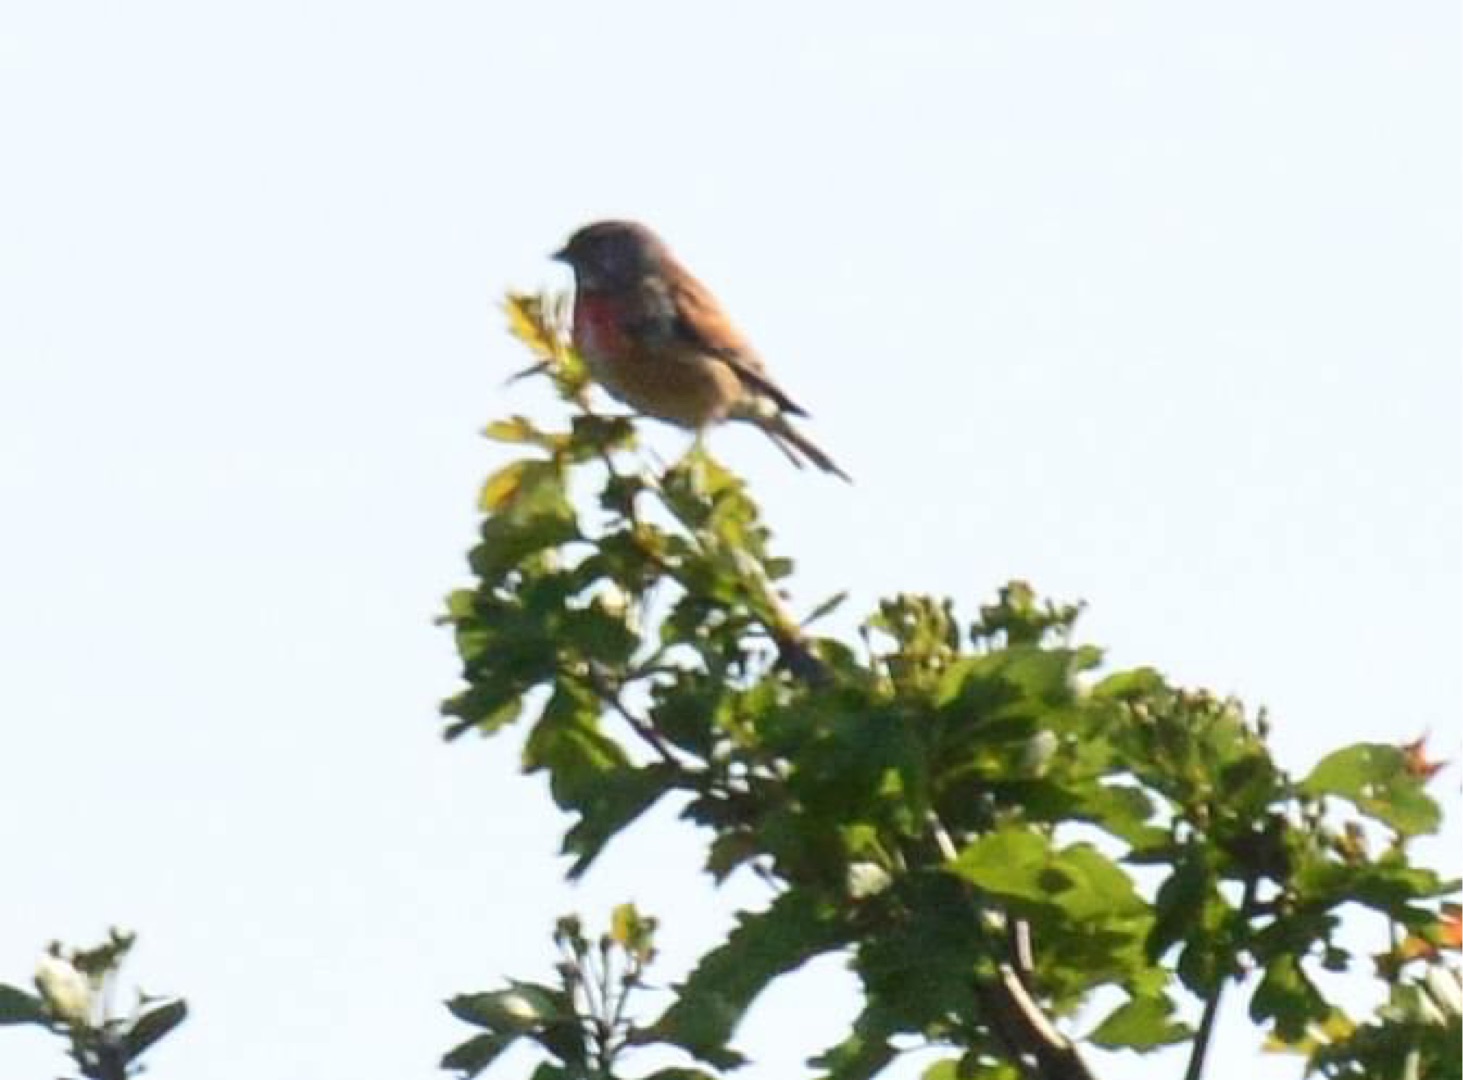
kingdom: Animalia
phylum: Chordata
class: Aves
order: Passeriformes
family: Fringillidae
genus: Linaria
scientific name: Linaria cannabina
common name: Tornirisk
